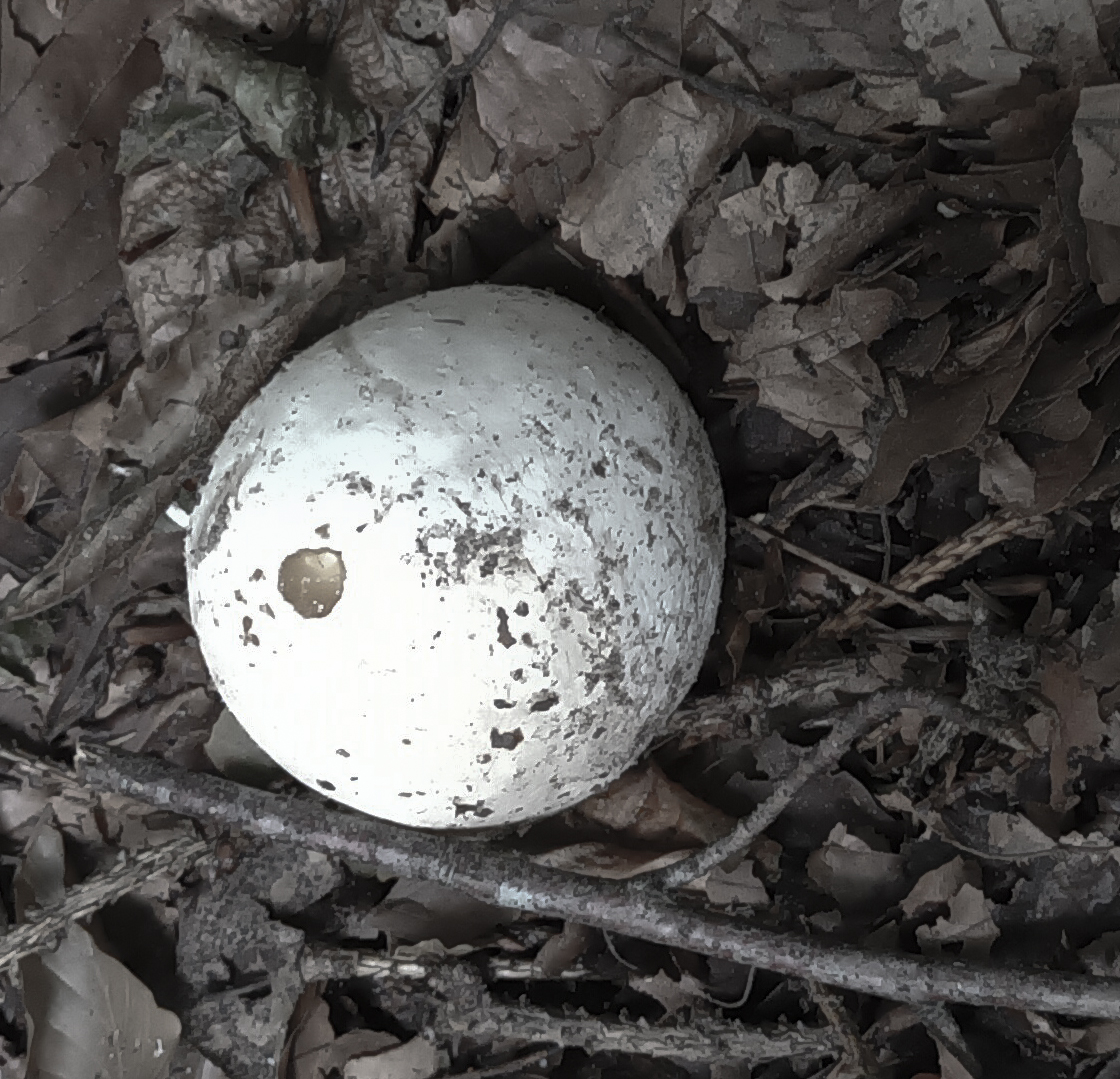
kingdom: Fungi
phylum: Basidiomycota
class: Agaricomycetes
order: Phallales
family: Phallaceae
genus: Phallus
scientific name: Phallus impudicus
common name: almindelig stinksvamp
